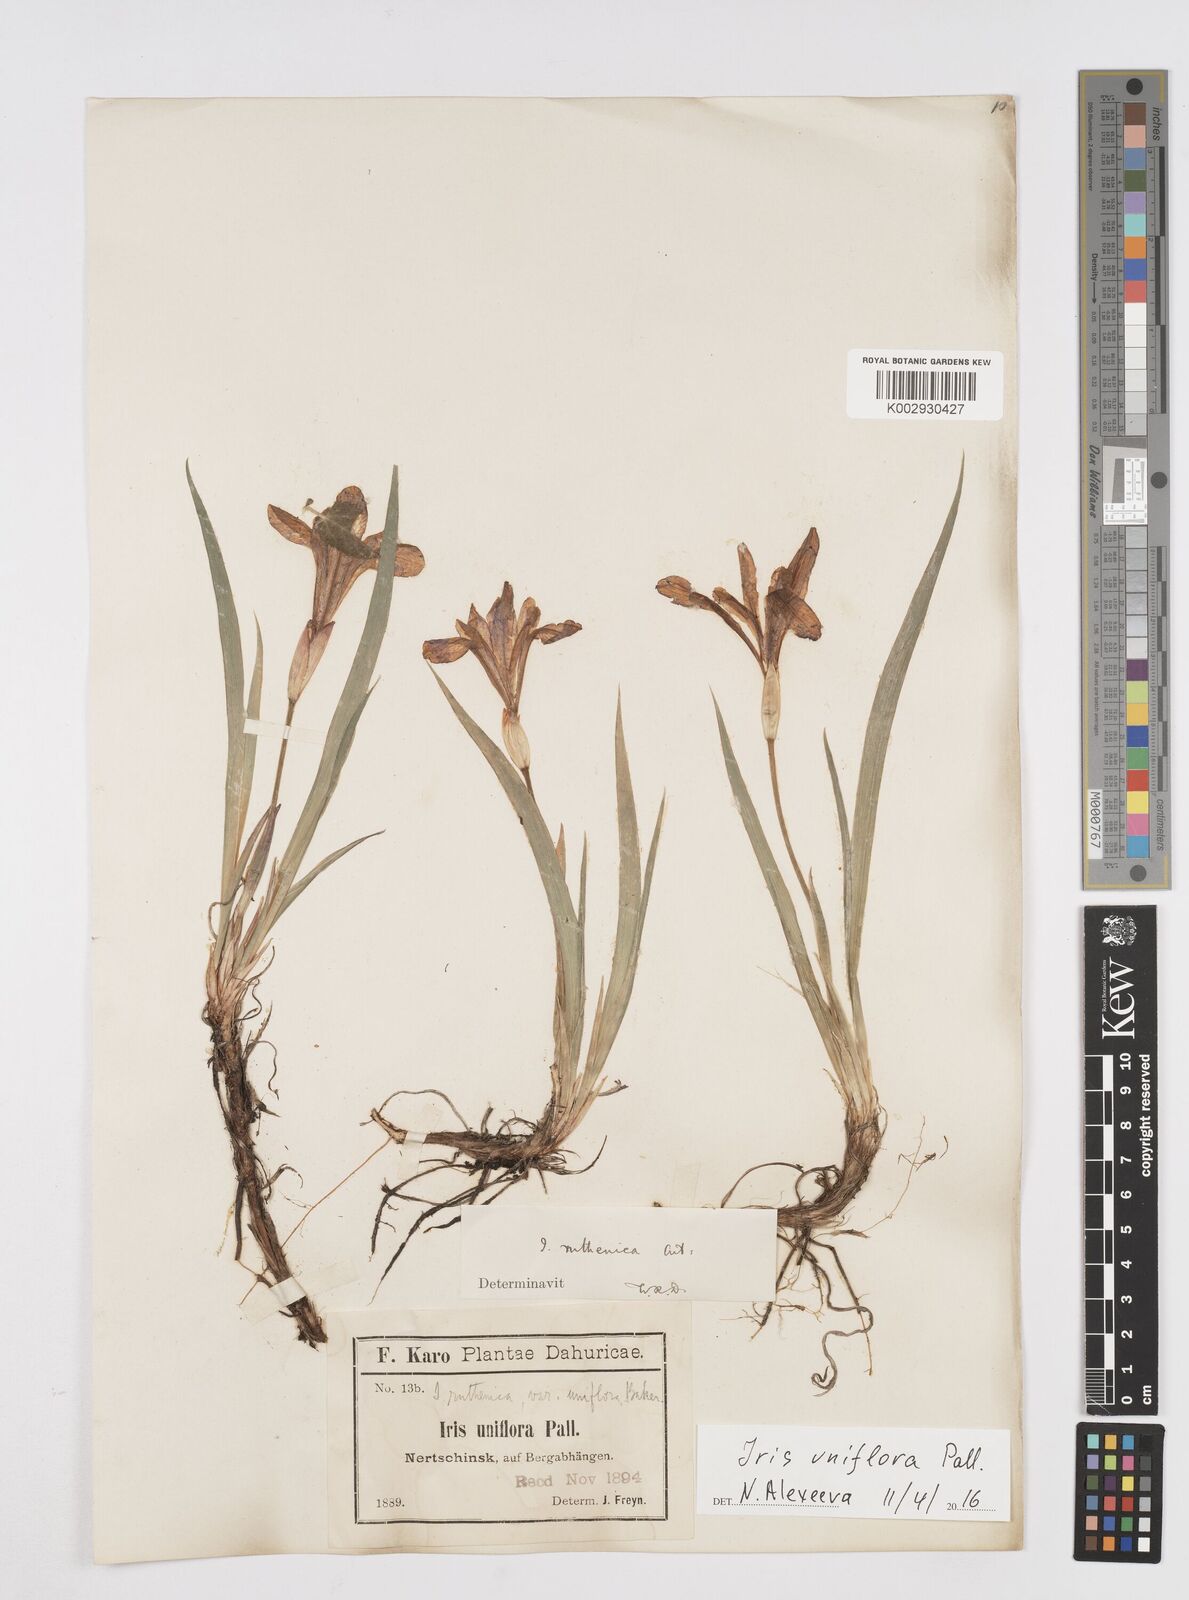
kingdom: Plantae
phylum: Tracheophyta
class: Liliopsida
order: Asparagales
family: Iridaceae
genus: Iris
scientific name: Iris uniflora
